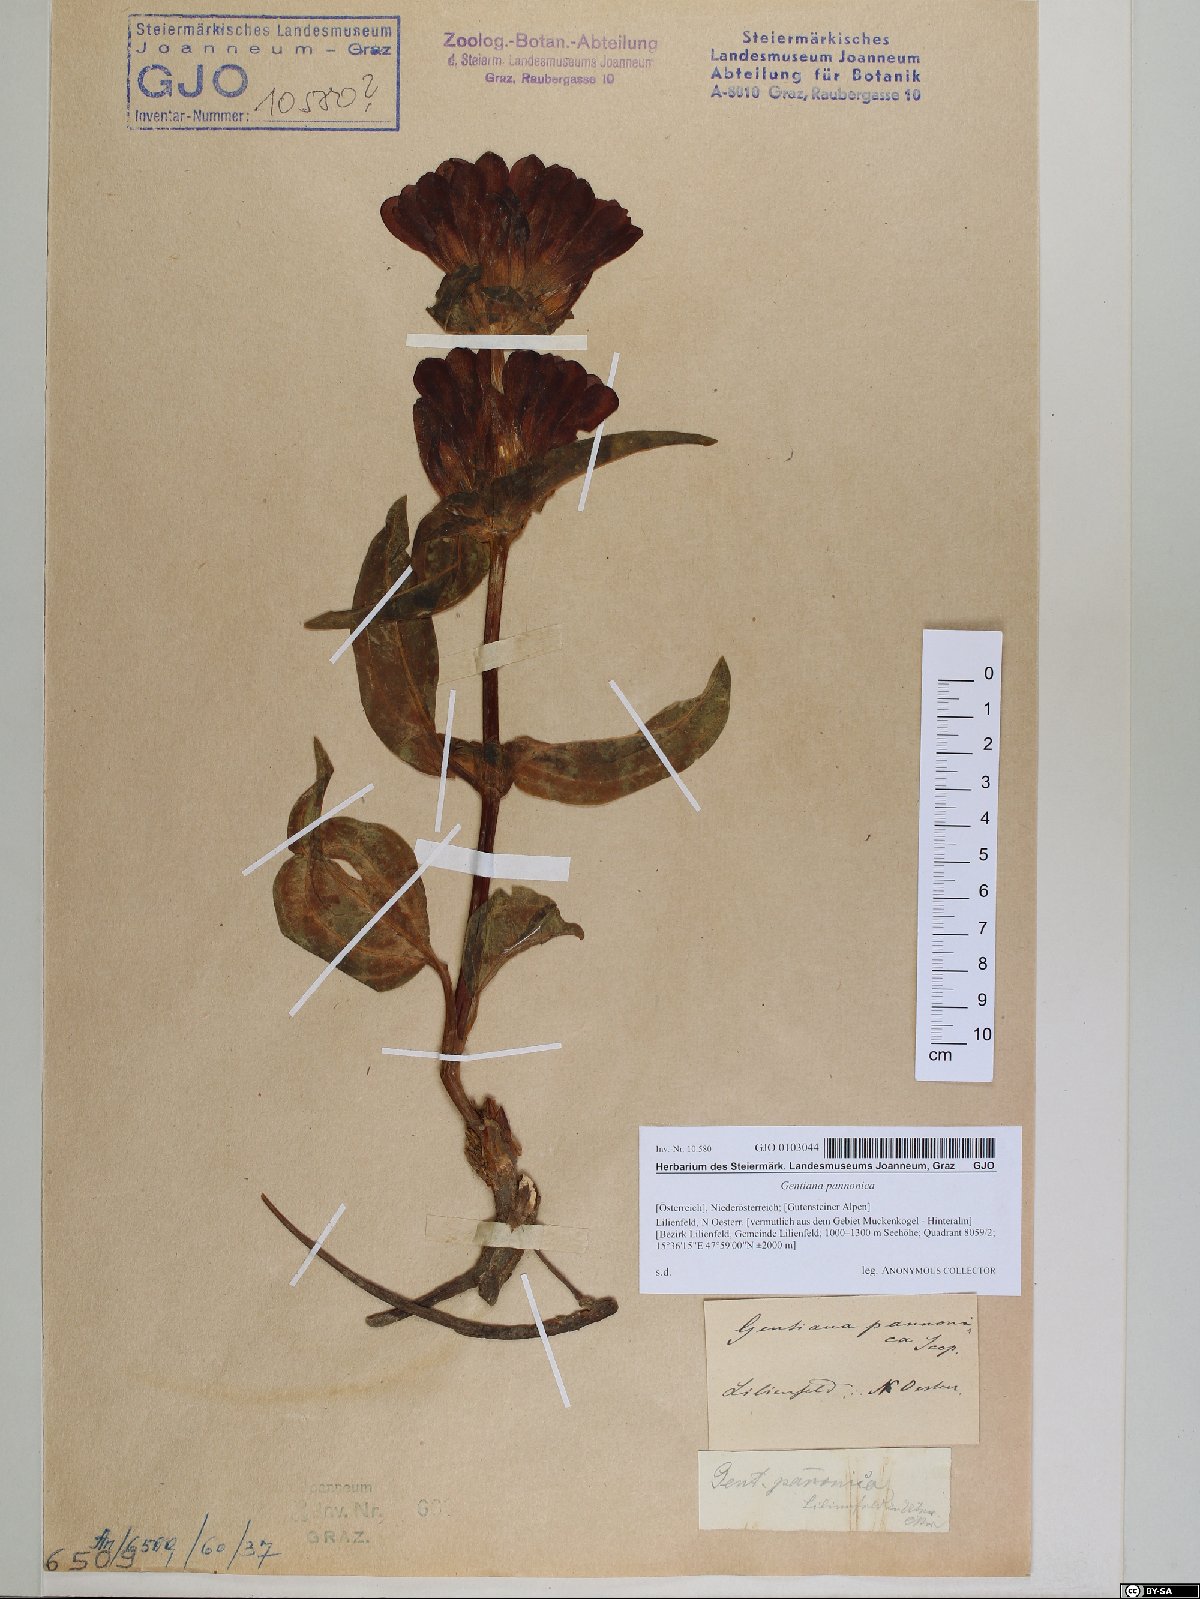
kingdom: Plantae
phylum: Tracheophyta
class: Magnoliopsida
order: Gentianales
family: Gentianaceae
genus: Gentiana
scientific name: Gentiana pannonica
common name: Hungarian gentian
